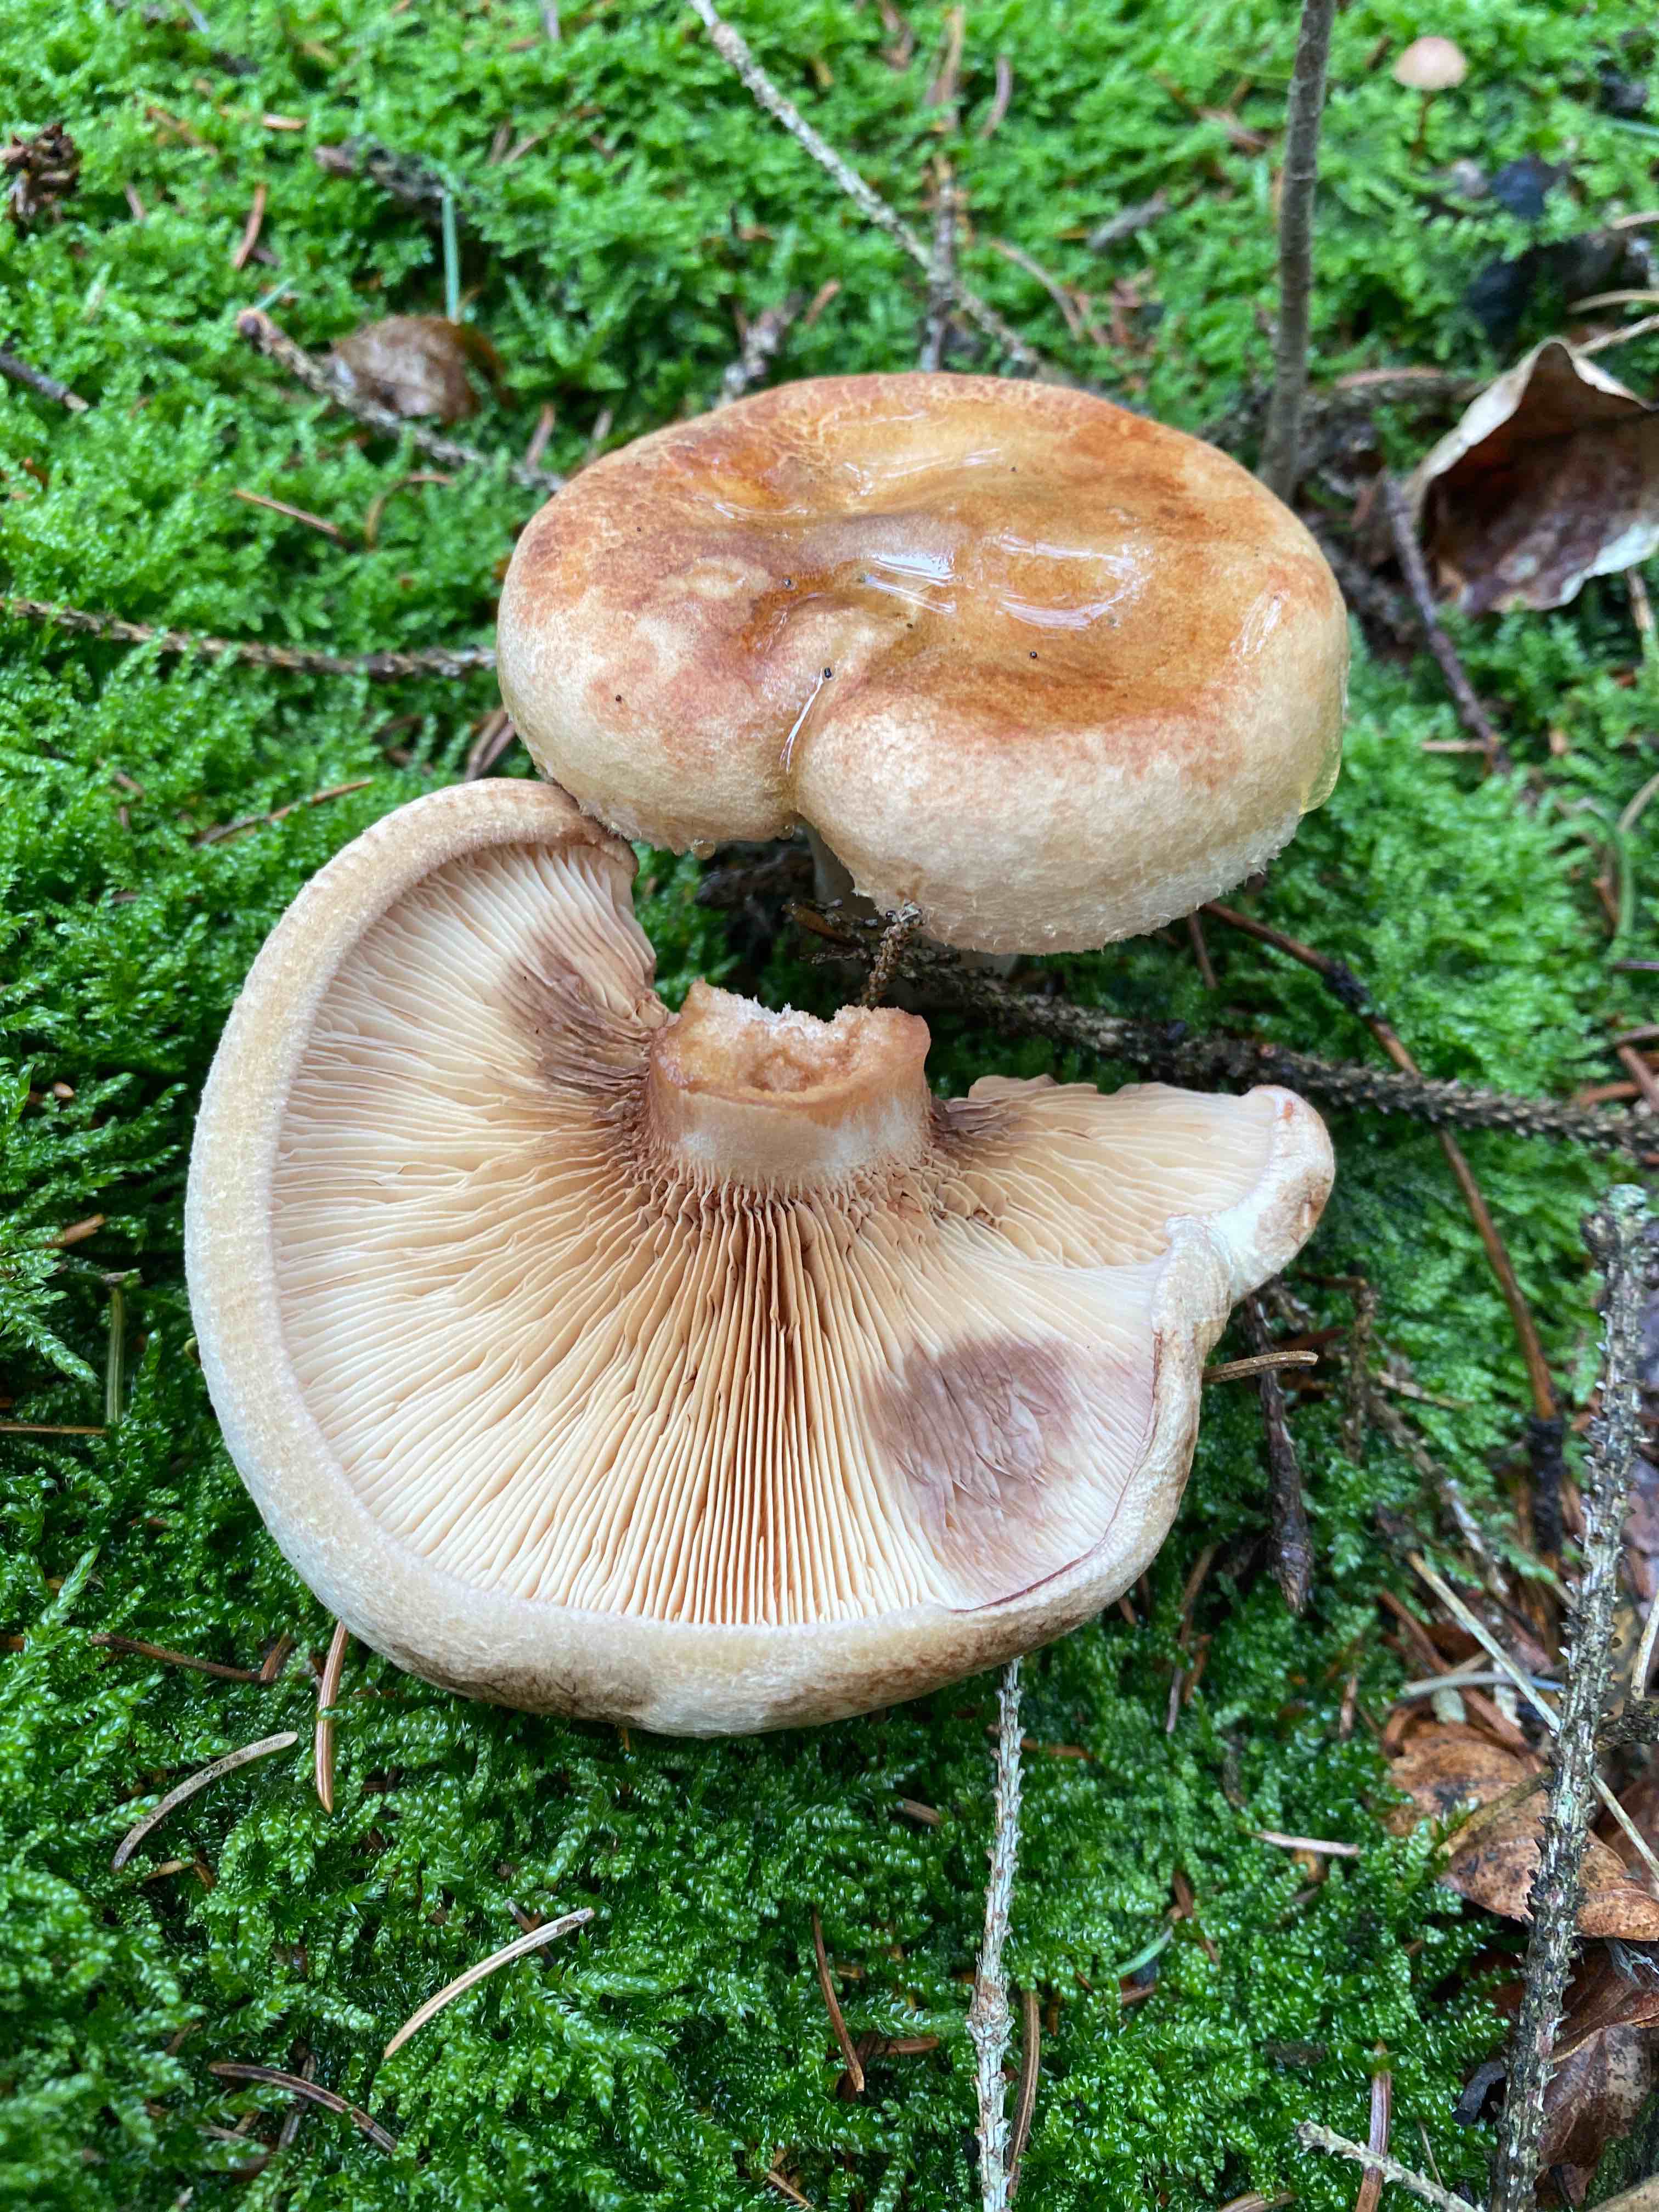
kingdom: Fungi
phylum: Basidiomycota
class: Agaricomycetes
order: Boletales
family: Paxillaceae
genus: Paxillus
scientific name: Paxillus involutus
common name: almindelig netbladhat
